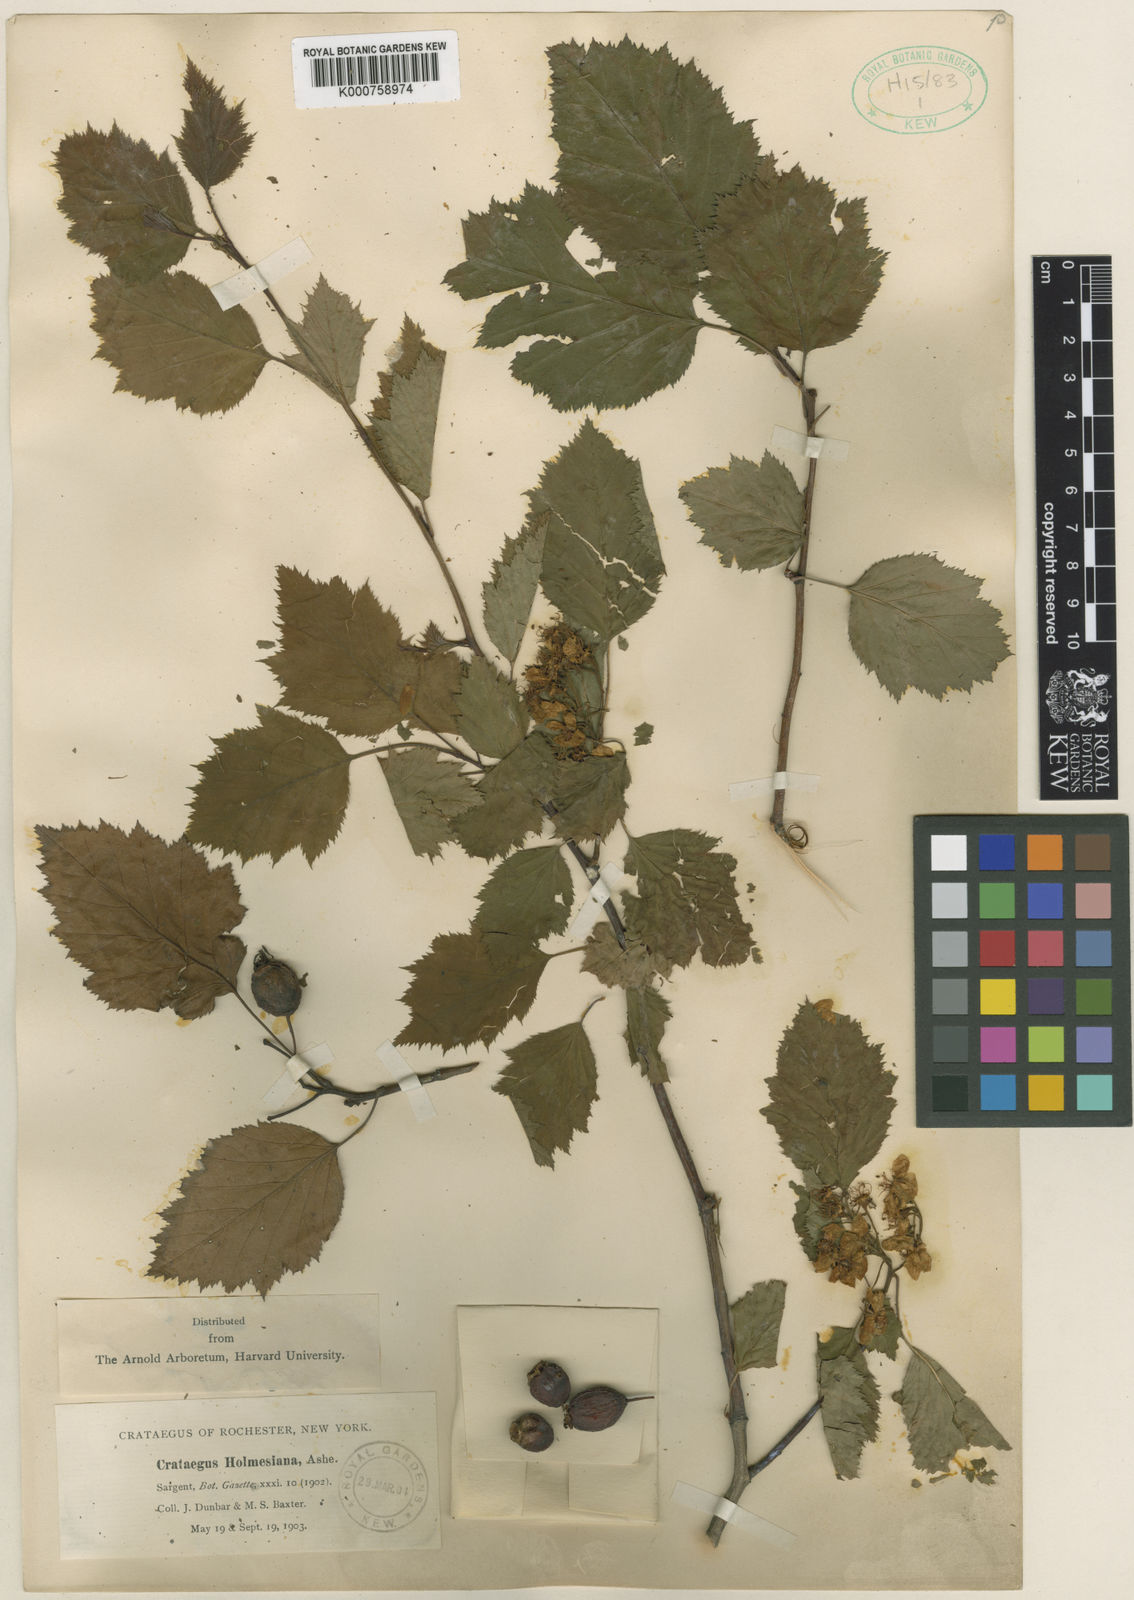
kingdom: Plantae
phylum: Tracheophyta
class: Magnoliopsida
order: Rosales
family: Rosaceae
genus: Crataegus
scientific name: Crataegus holmesiana
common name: Holmes' hawthorn
